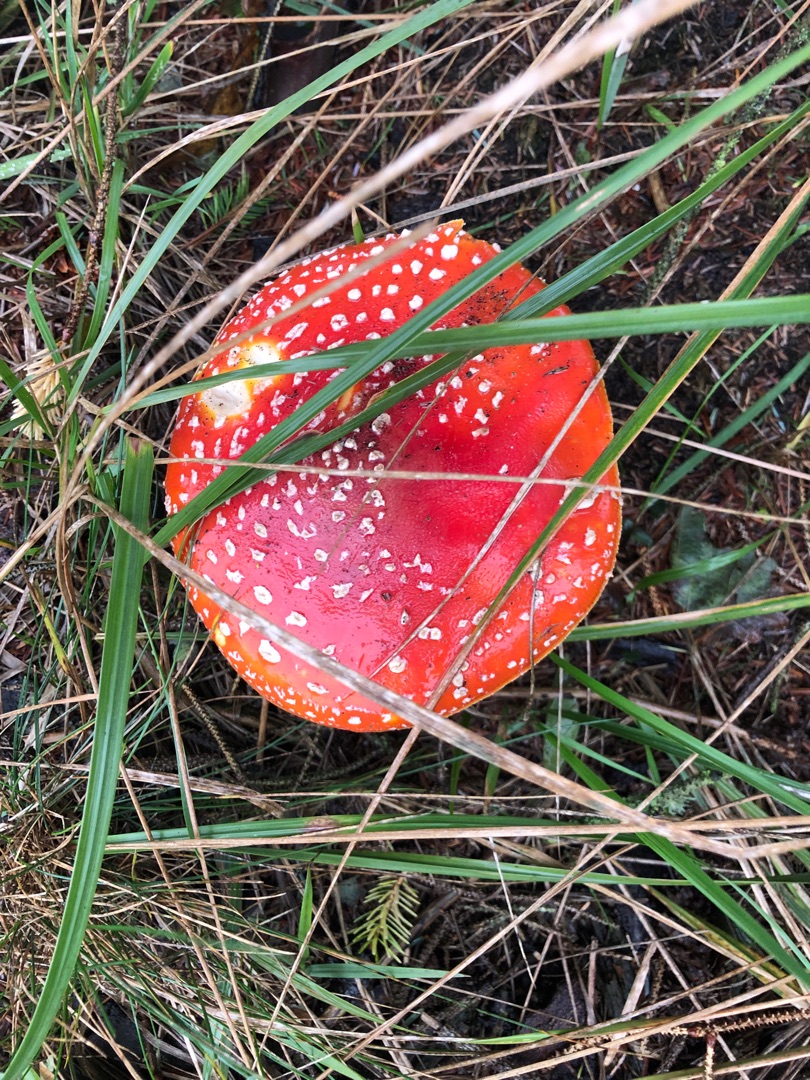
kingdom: Fungi
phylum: Basidiomycota
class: Agaricomycetes
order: Agaricales
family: Amanitaceae
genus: Amanita
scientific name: Amanita muscaria
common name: Rød fluesvamp
